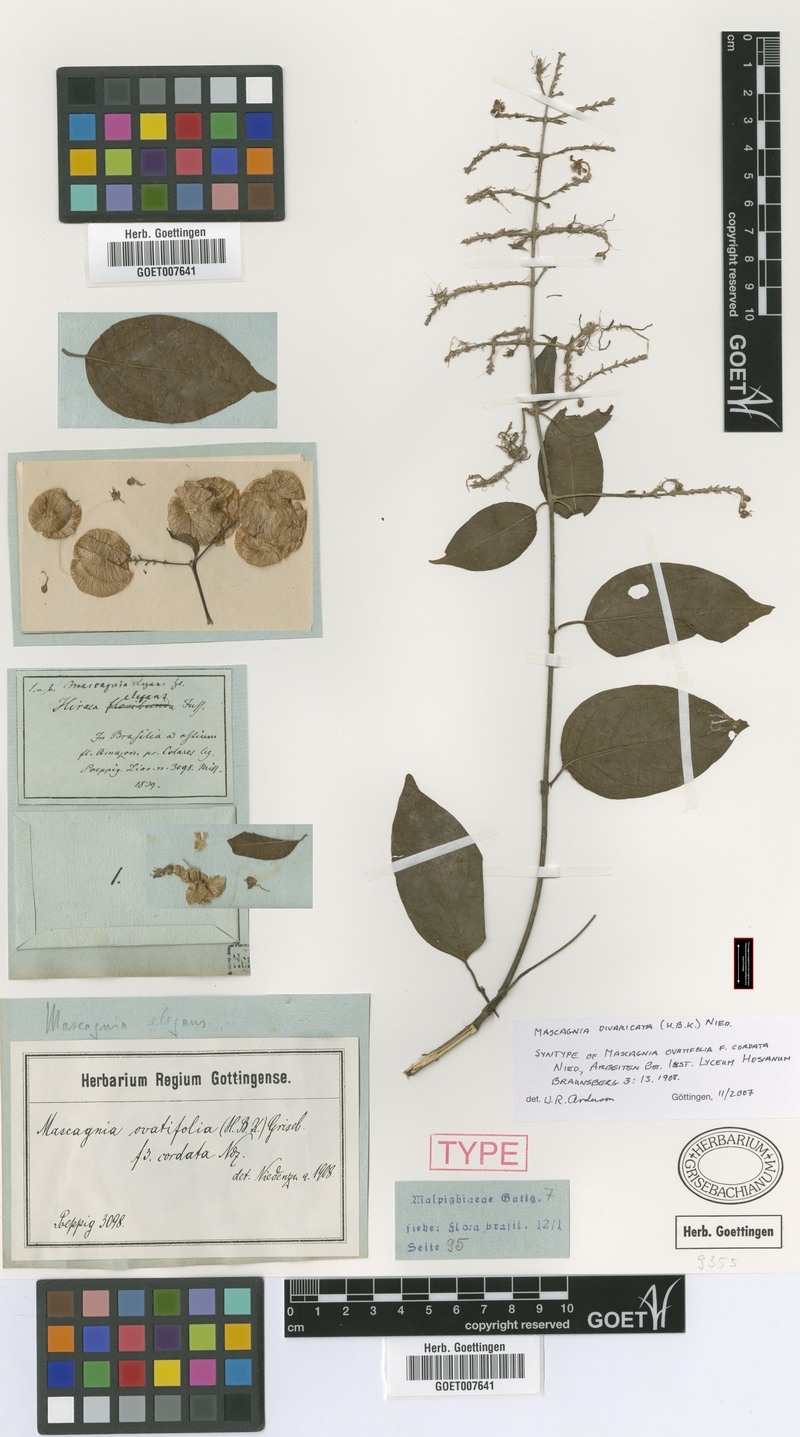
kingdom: Plantae
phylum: Tracheophyta
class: Magnoliopsida
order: Malpighiales
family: Malpighiaceae
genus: Mascagnia
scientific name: Mascagnia divaricata
